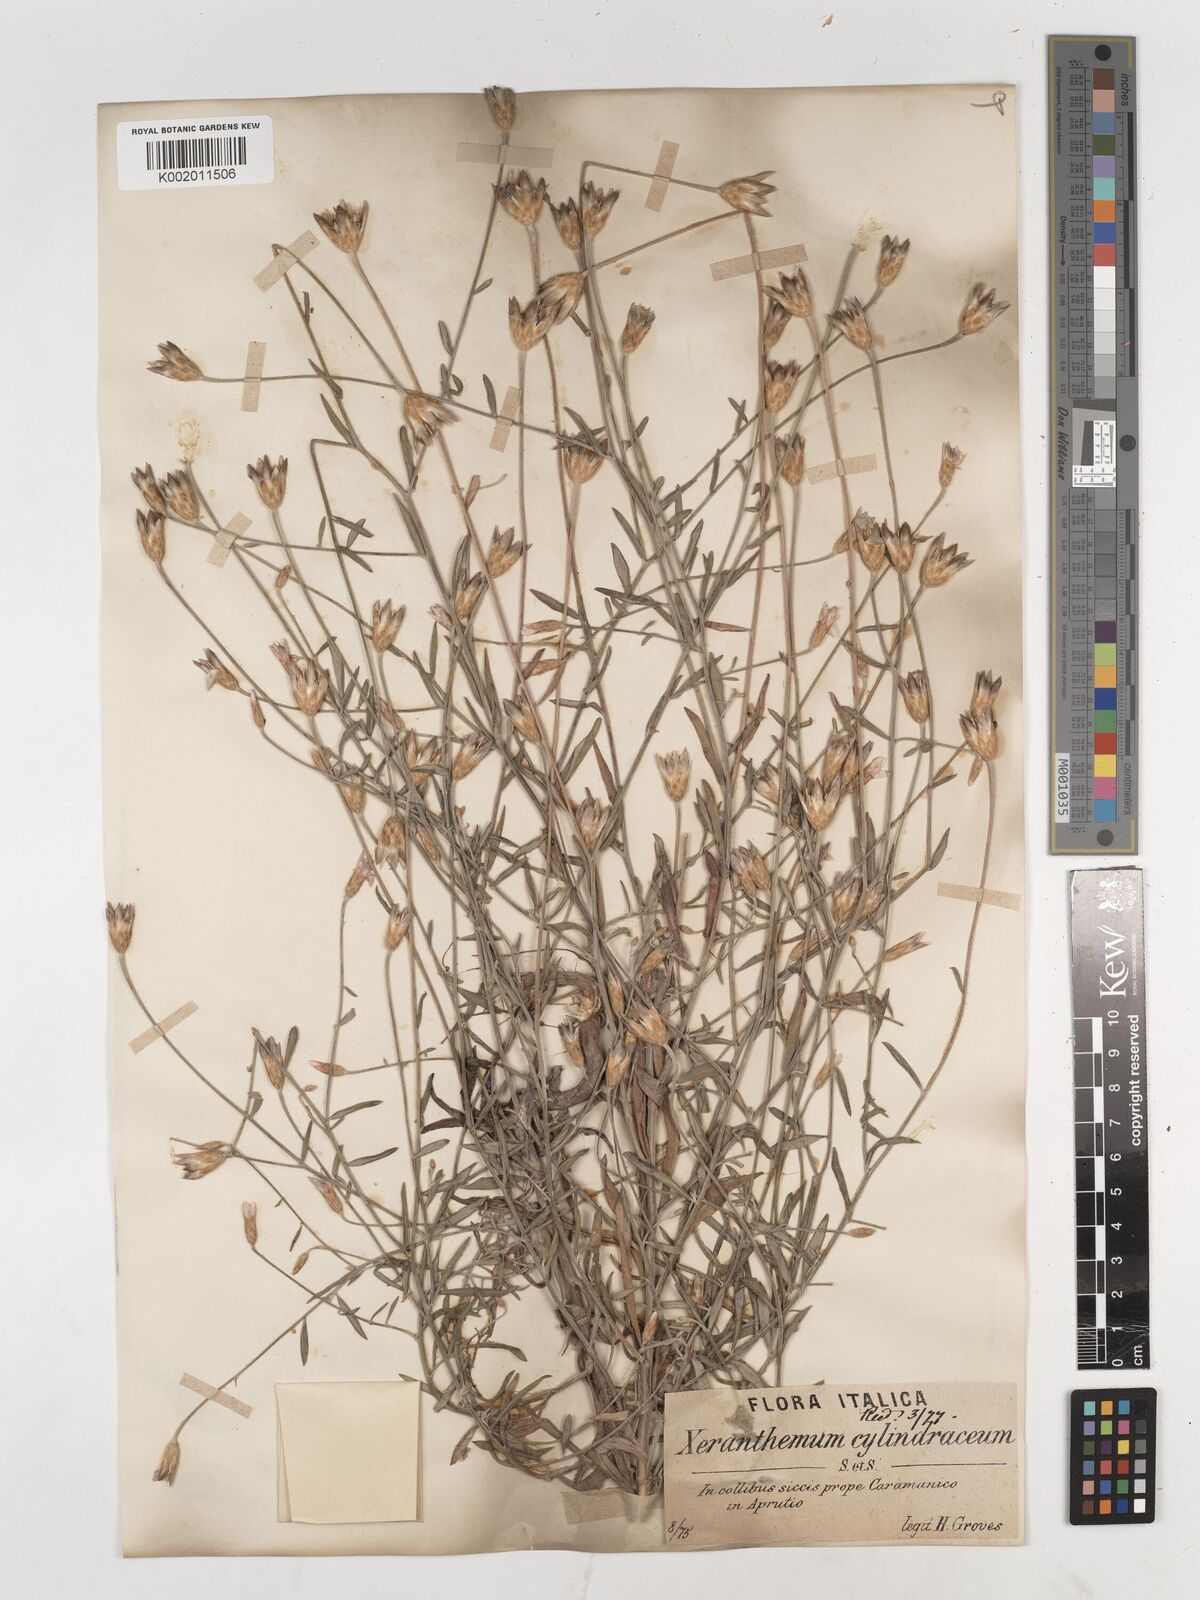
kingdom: Plantae
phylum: Tracheophyta
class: Magnoliopsida
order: Asterales
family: Asteraceae
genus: Xeranthemum
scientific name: Xeranthemum cylindraceum
